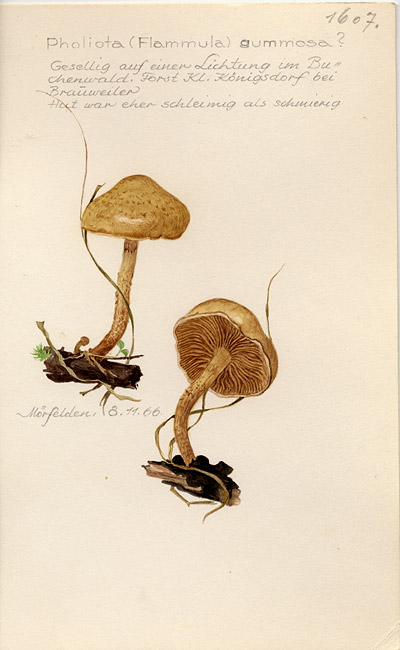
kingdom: Fungi
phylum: Basidiomycota
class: Agaricomycetes
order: Agaricales
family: Strophariaceae
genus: Pholiota
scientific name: Pholiota gummosa
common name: Sticky scalycap
